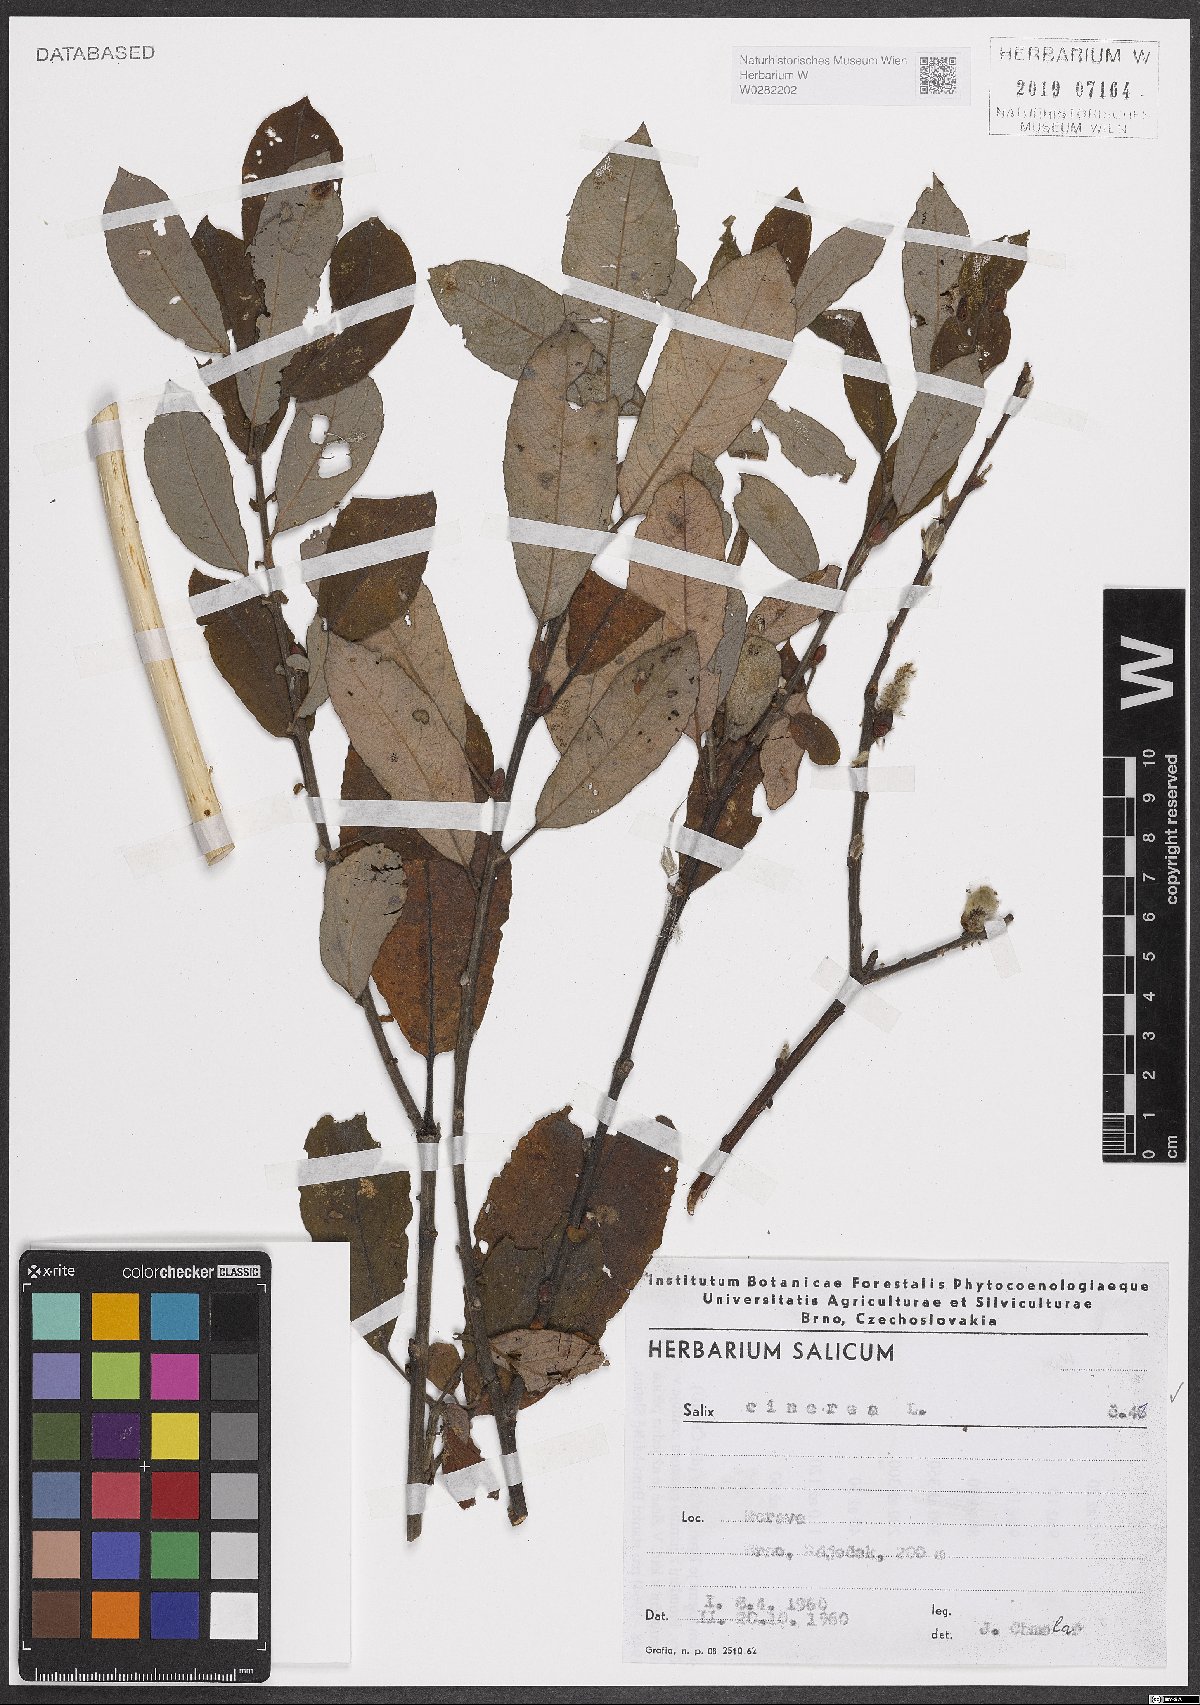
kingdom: Plantae
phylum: Tracheophyta
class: Magnoliopsida
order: Malpighiales
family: Salicaceae
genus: Salix
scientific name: Salix cinerea
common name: Common sallow
